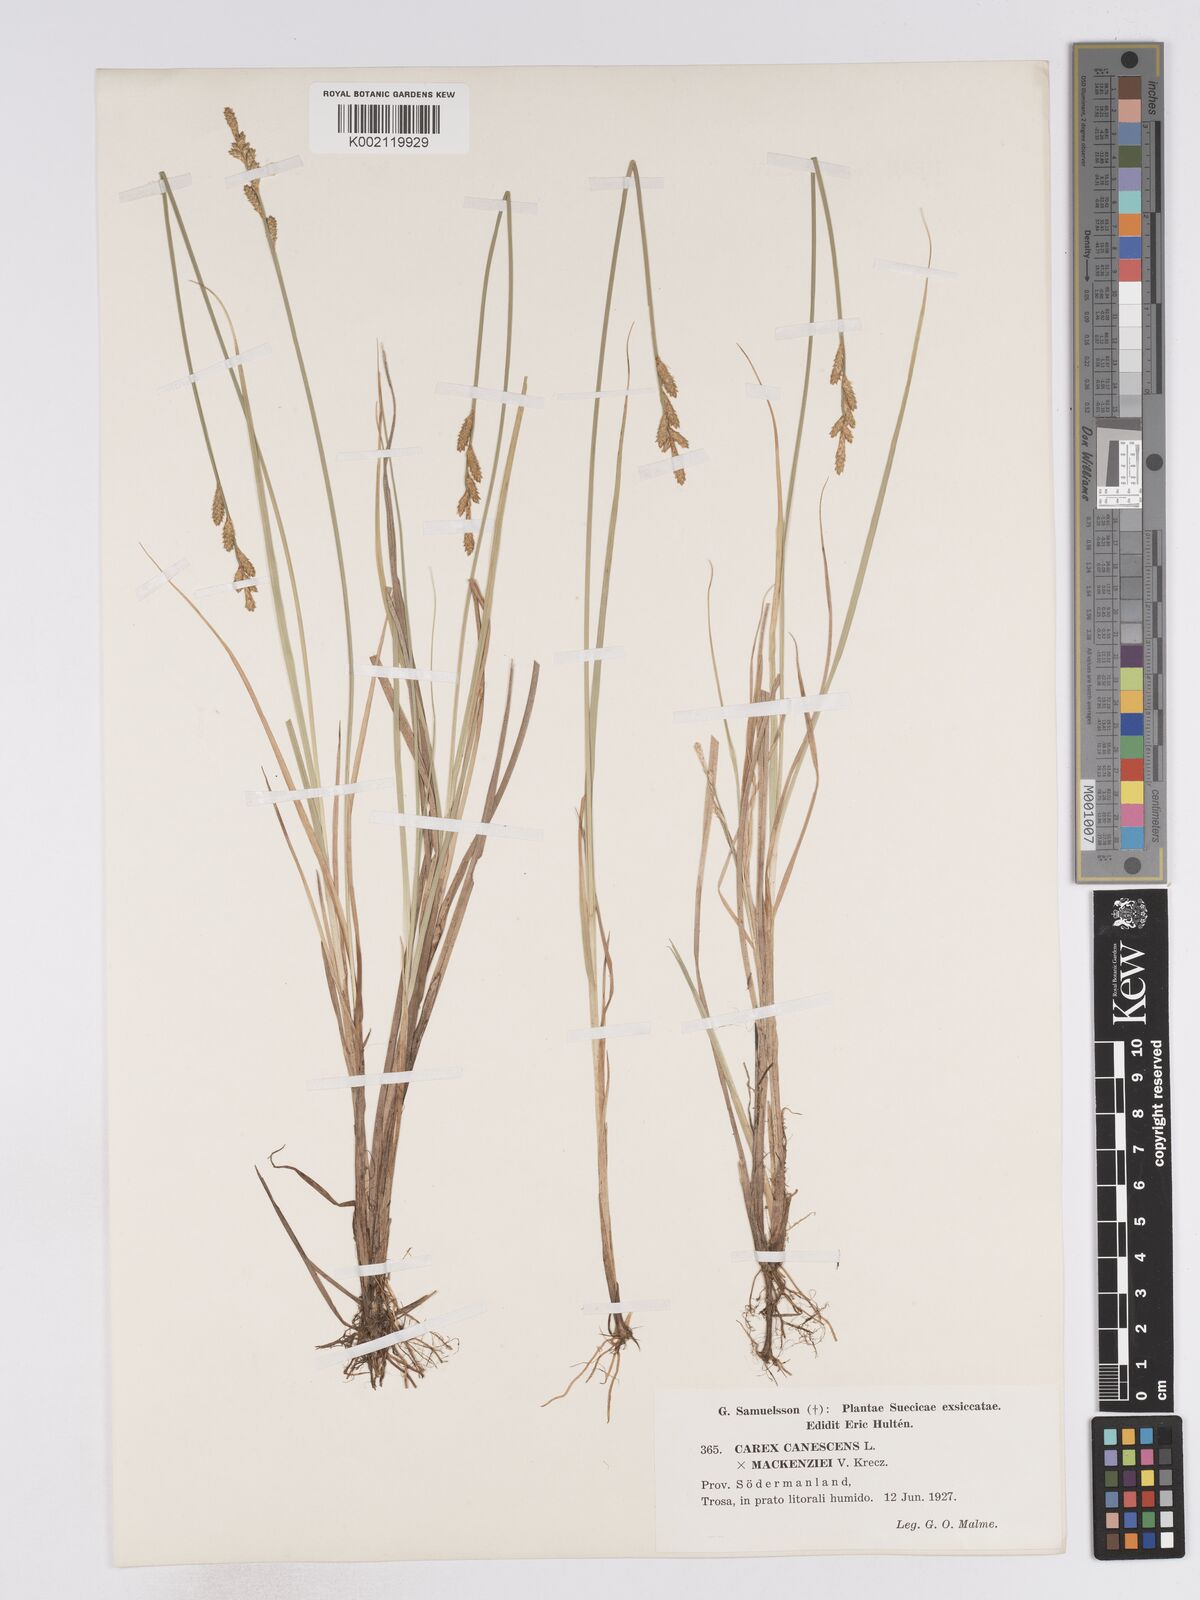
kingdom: Plantae
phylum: Tracheophyta
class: Liliopsida
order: Poales
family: Cyperaceae
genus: Carex
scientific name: Carex curta
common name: White sedge
